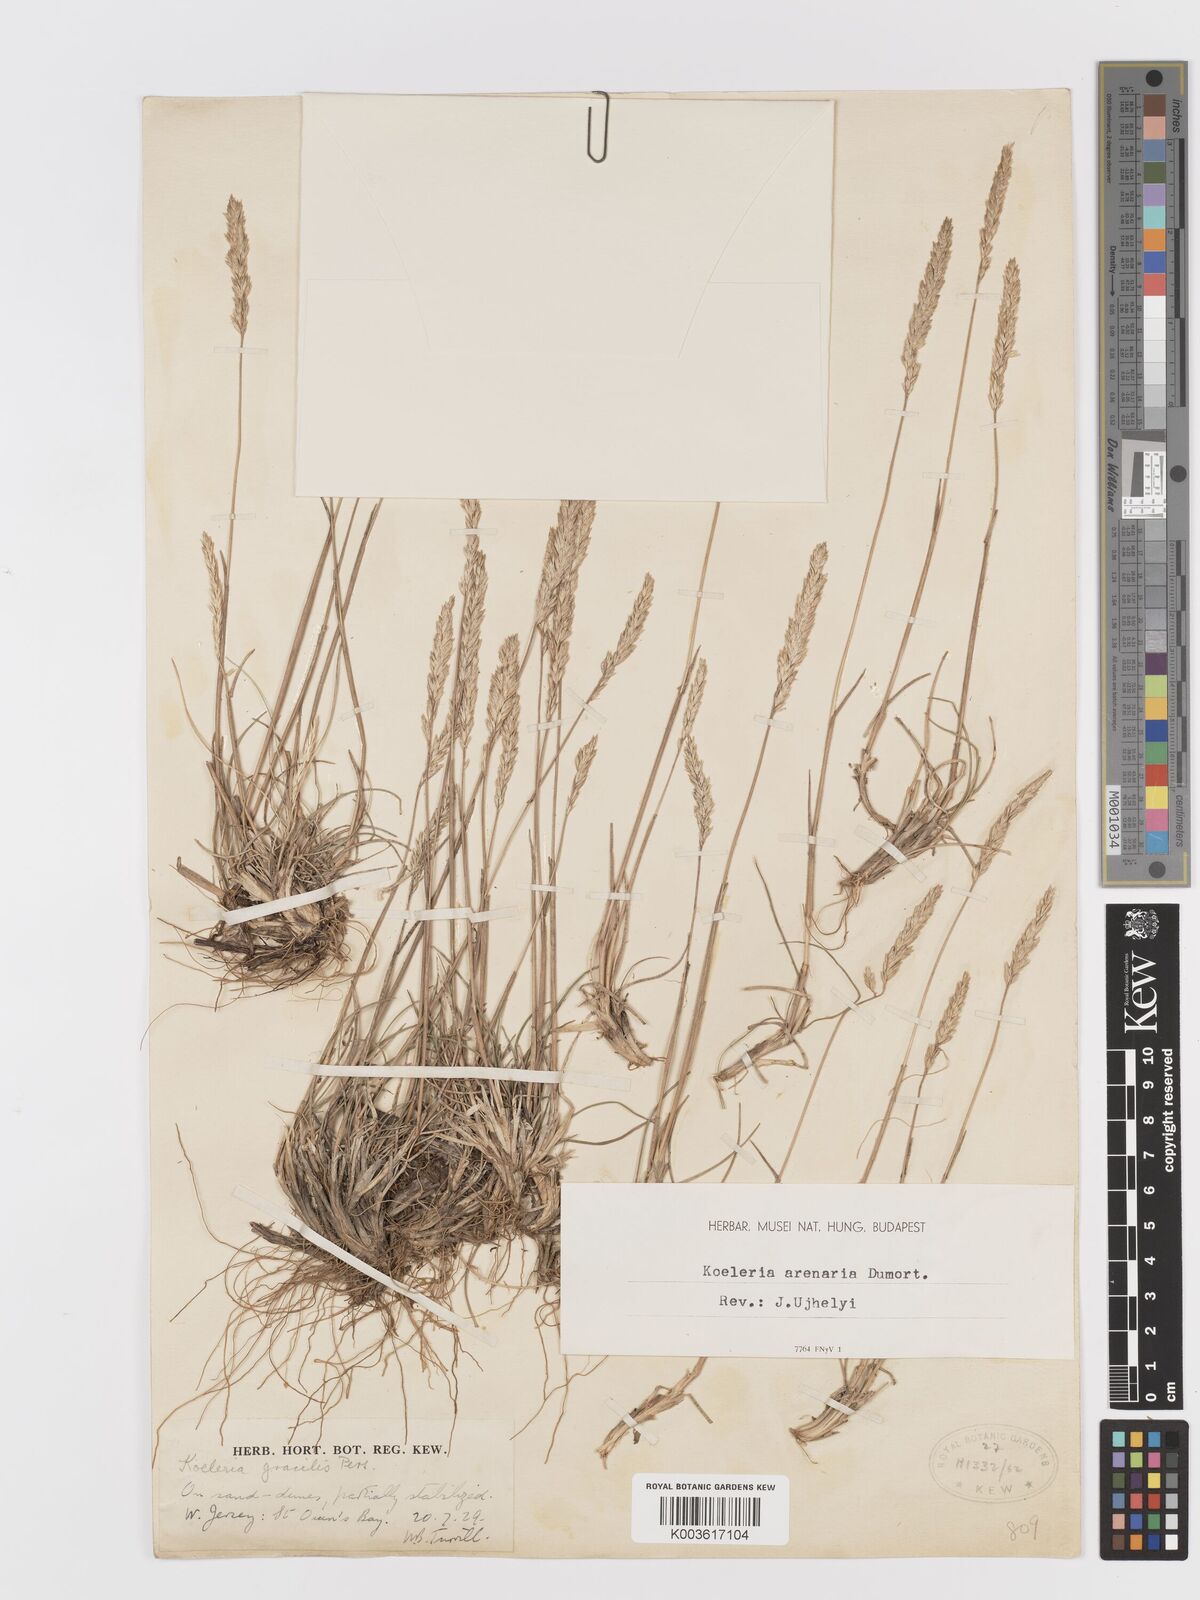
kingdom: Plantae
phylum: Tracheophyta
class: Liliopsida
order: Poales
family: Poaceae
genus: Koeleria
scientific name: Koeleria macrantha
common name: Crested hair-grass
